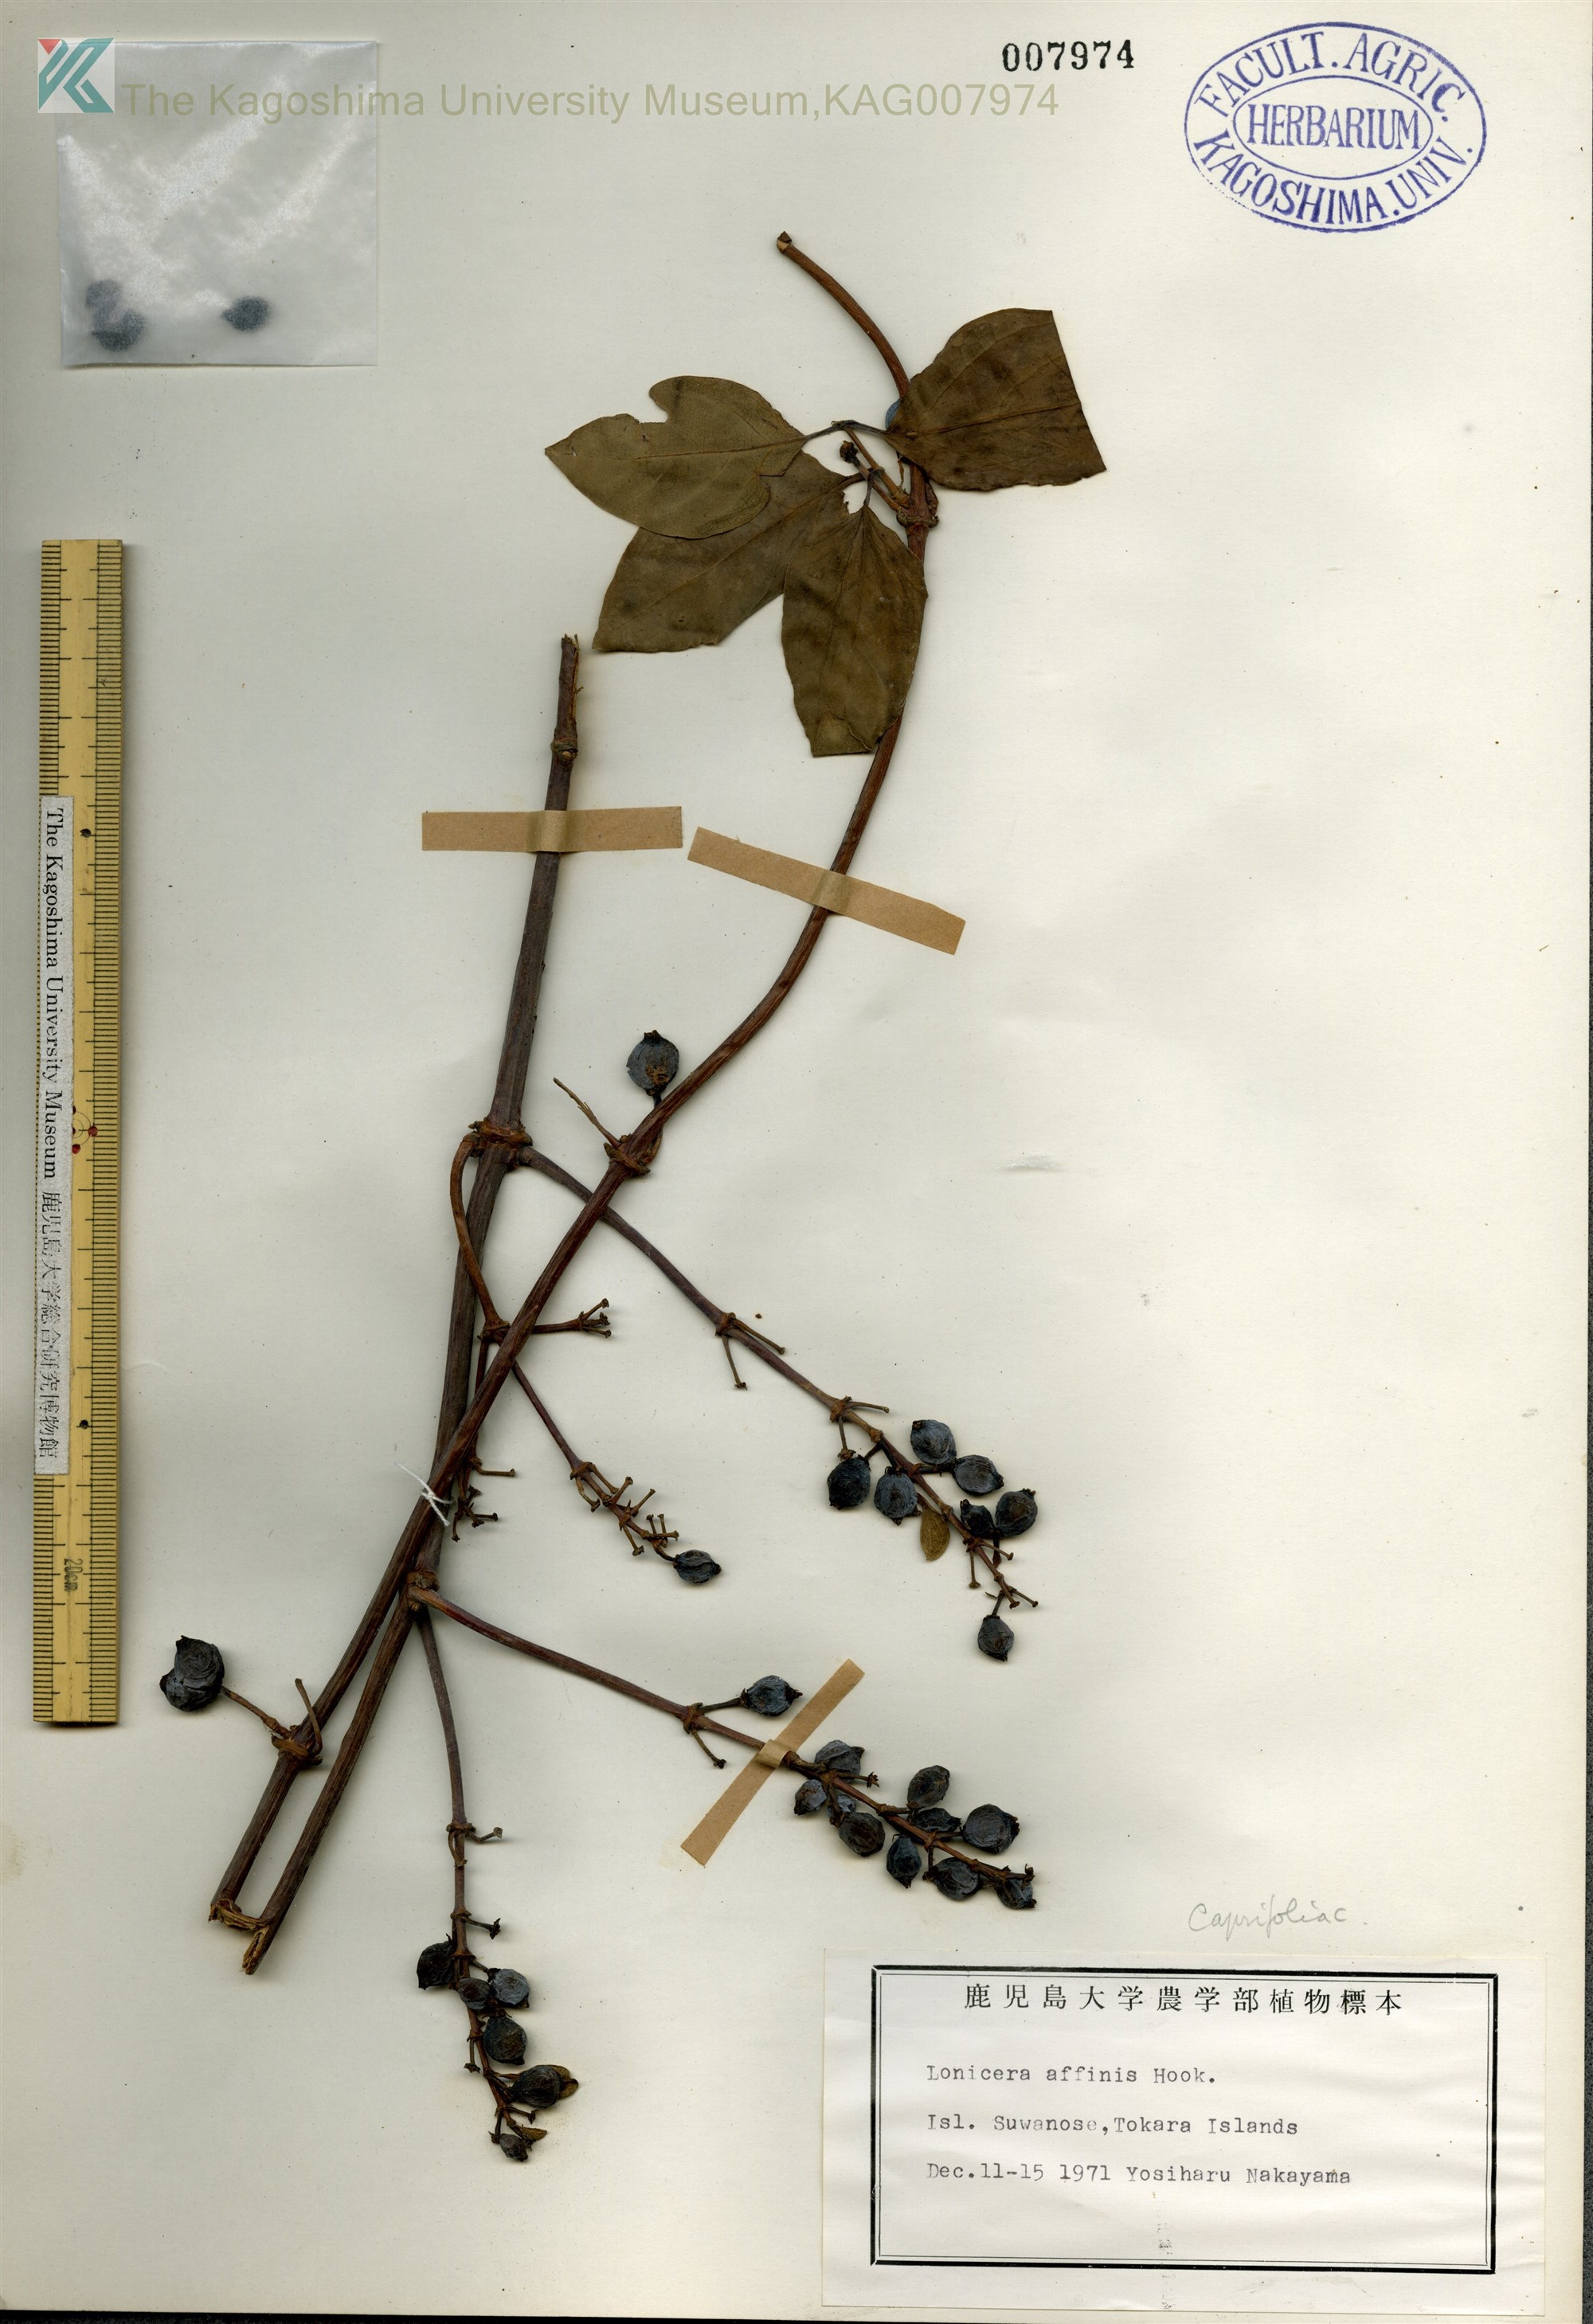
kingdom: Plantae
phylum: Tracheophyta
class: Magnoliopsida
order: Dipsacales
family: Caprifoliaceae
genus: Lonicera
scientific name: Lonicera affinis
